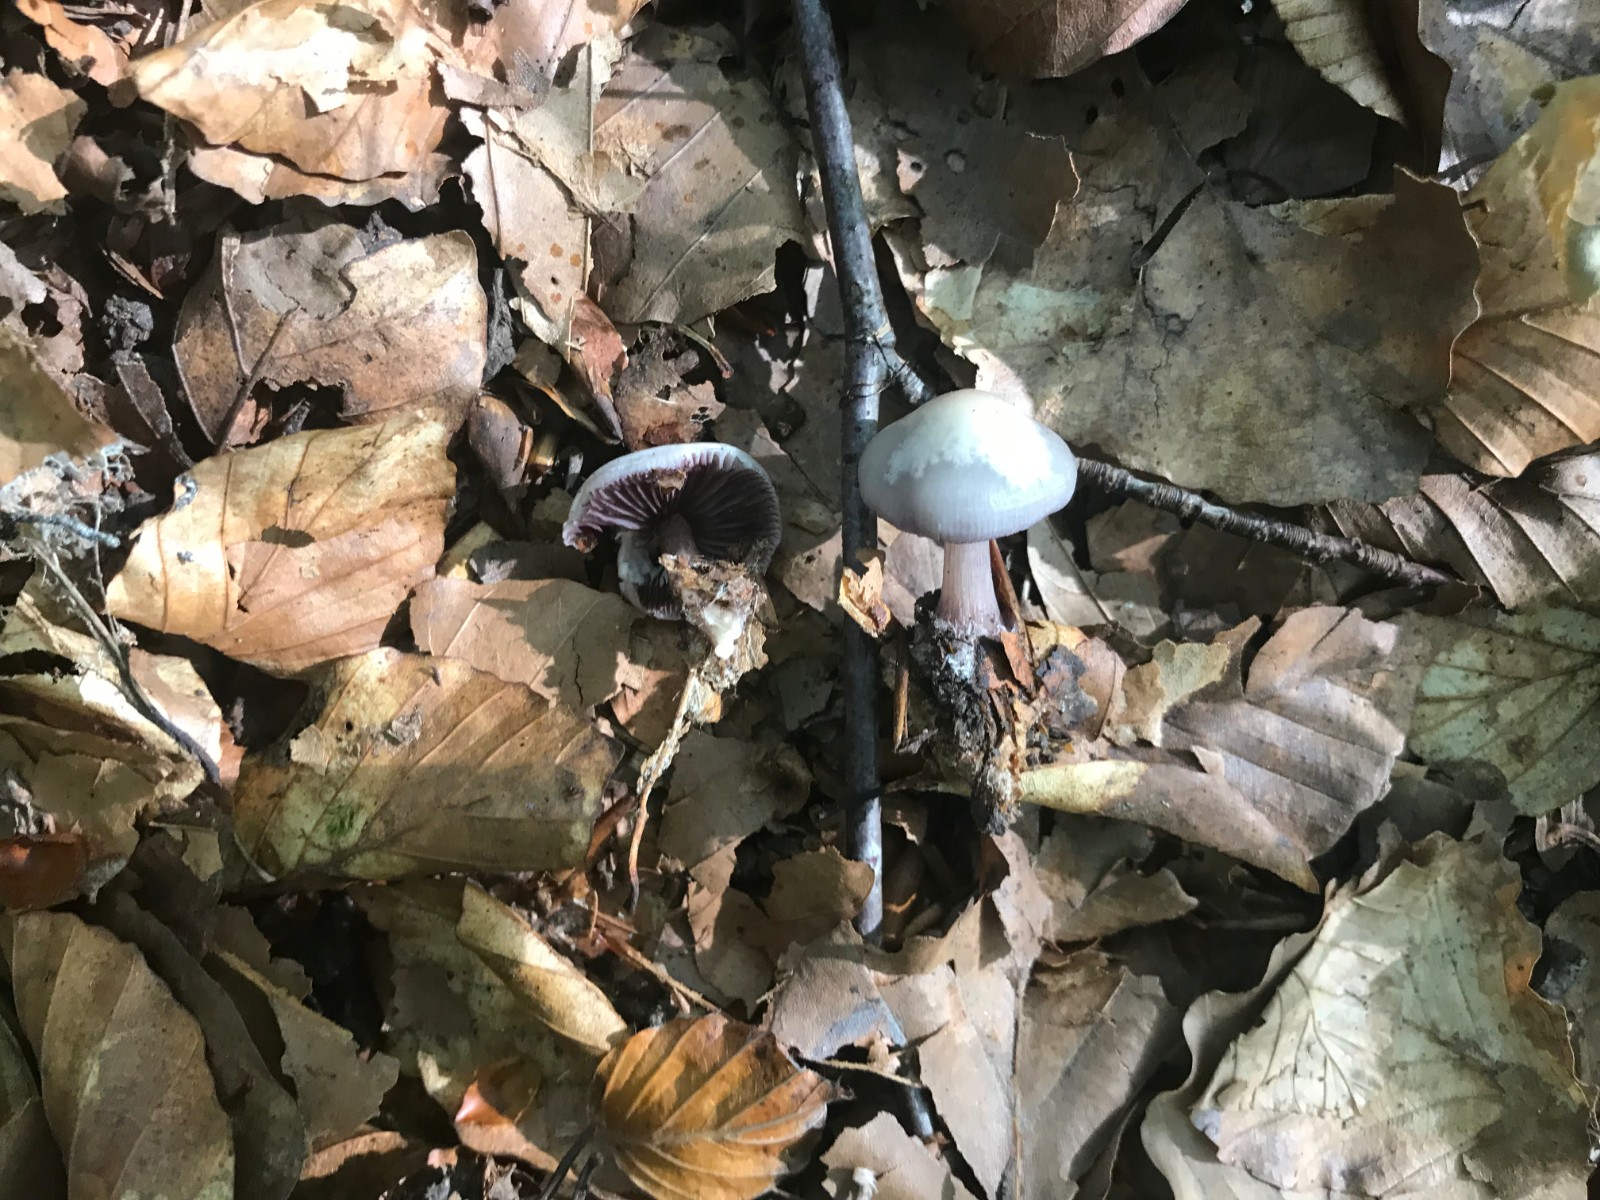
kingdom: Fungi
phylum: Basidiomycota
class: Agaricomycetes
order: Agaricales
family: Mycenaceae
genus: Mycena
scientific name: Mycena pelianthina
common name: mørkbladet huesvamp
